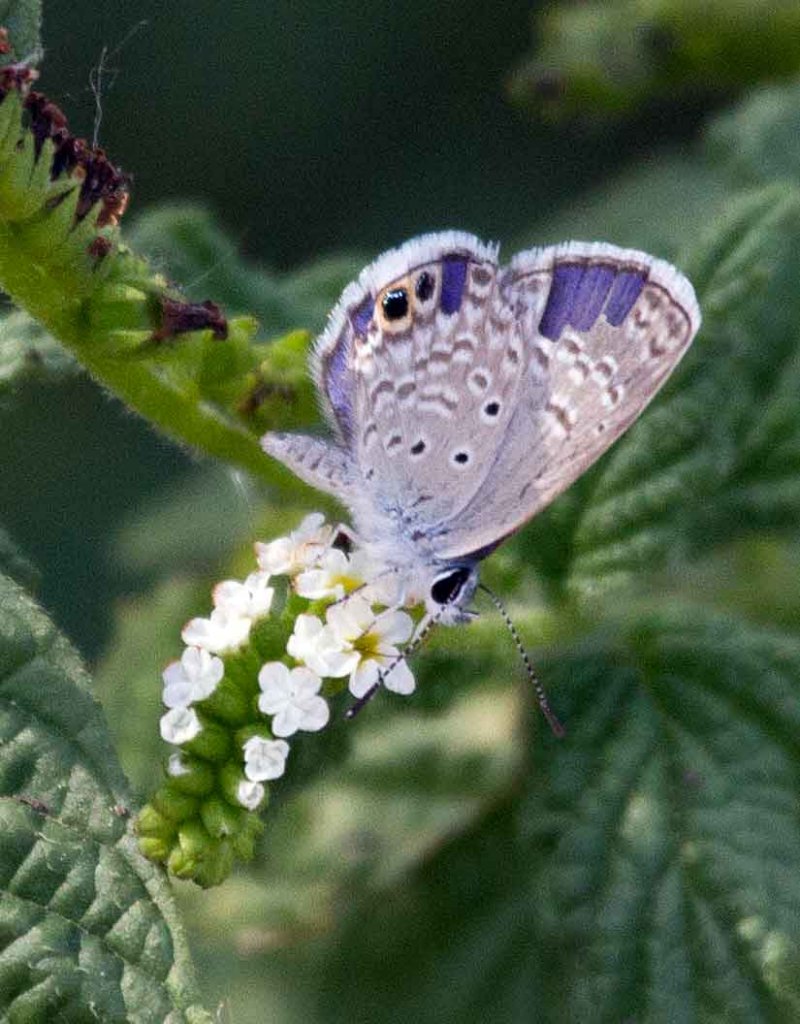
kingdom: Animalia
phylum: Arthropoda
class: Insecta
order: Lepidoptera
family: Lycaenidae
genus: Hemiargus
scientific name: Hemiargus ceraunus
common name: Ceraunus Blue
